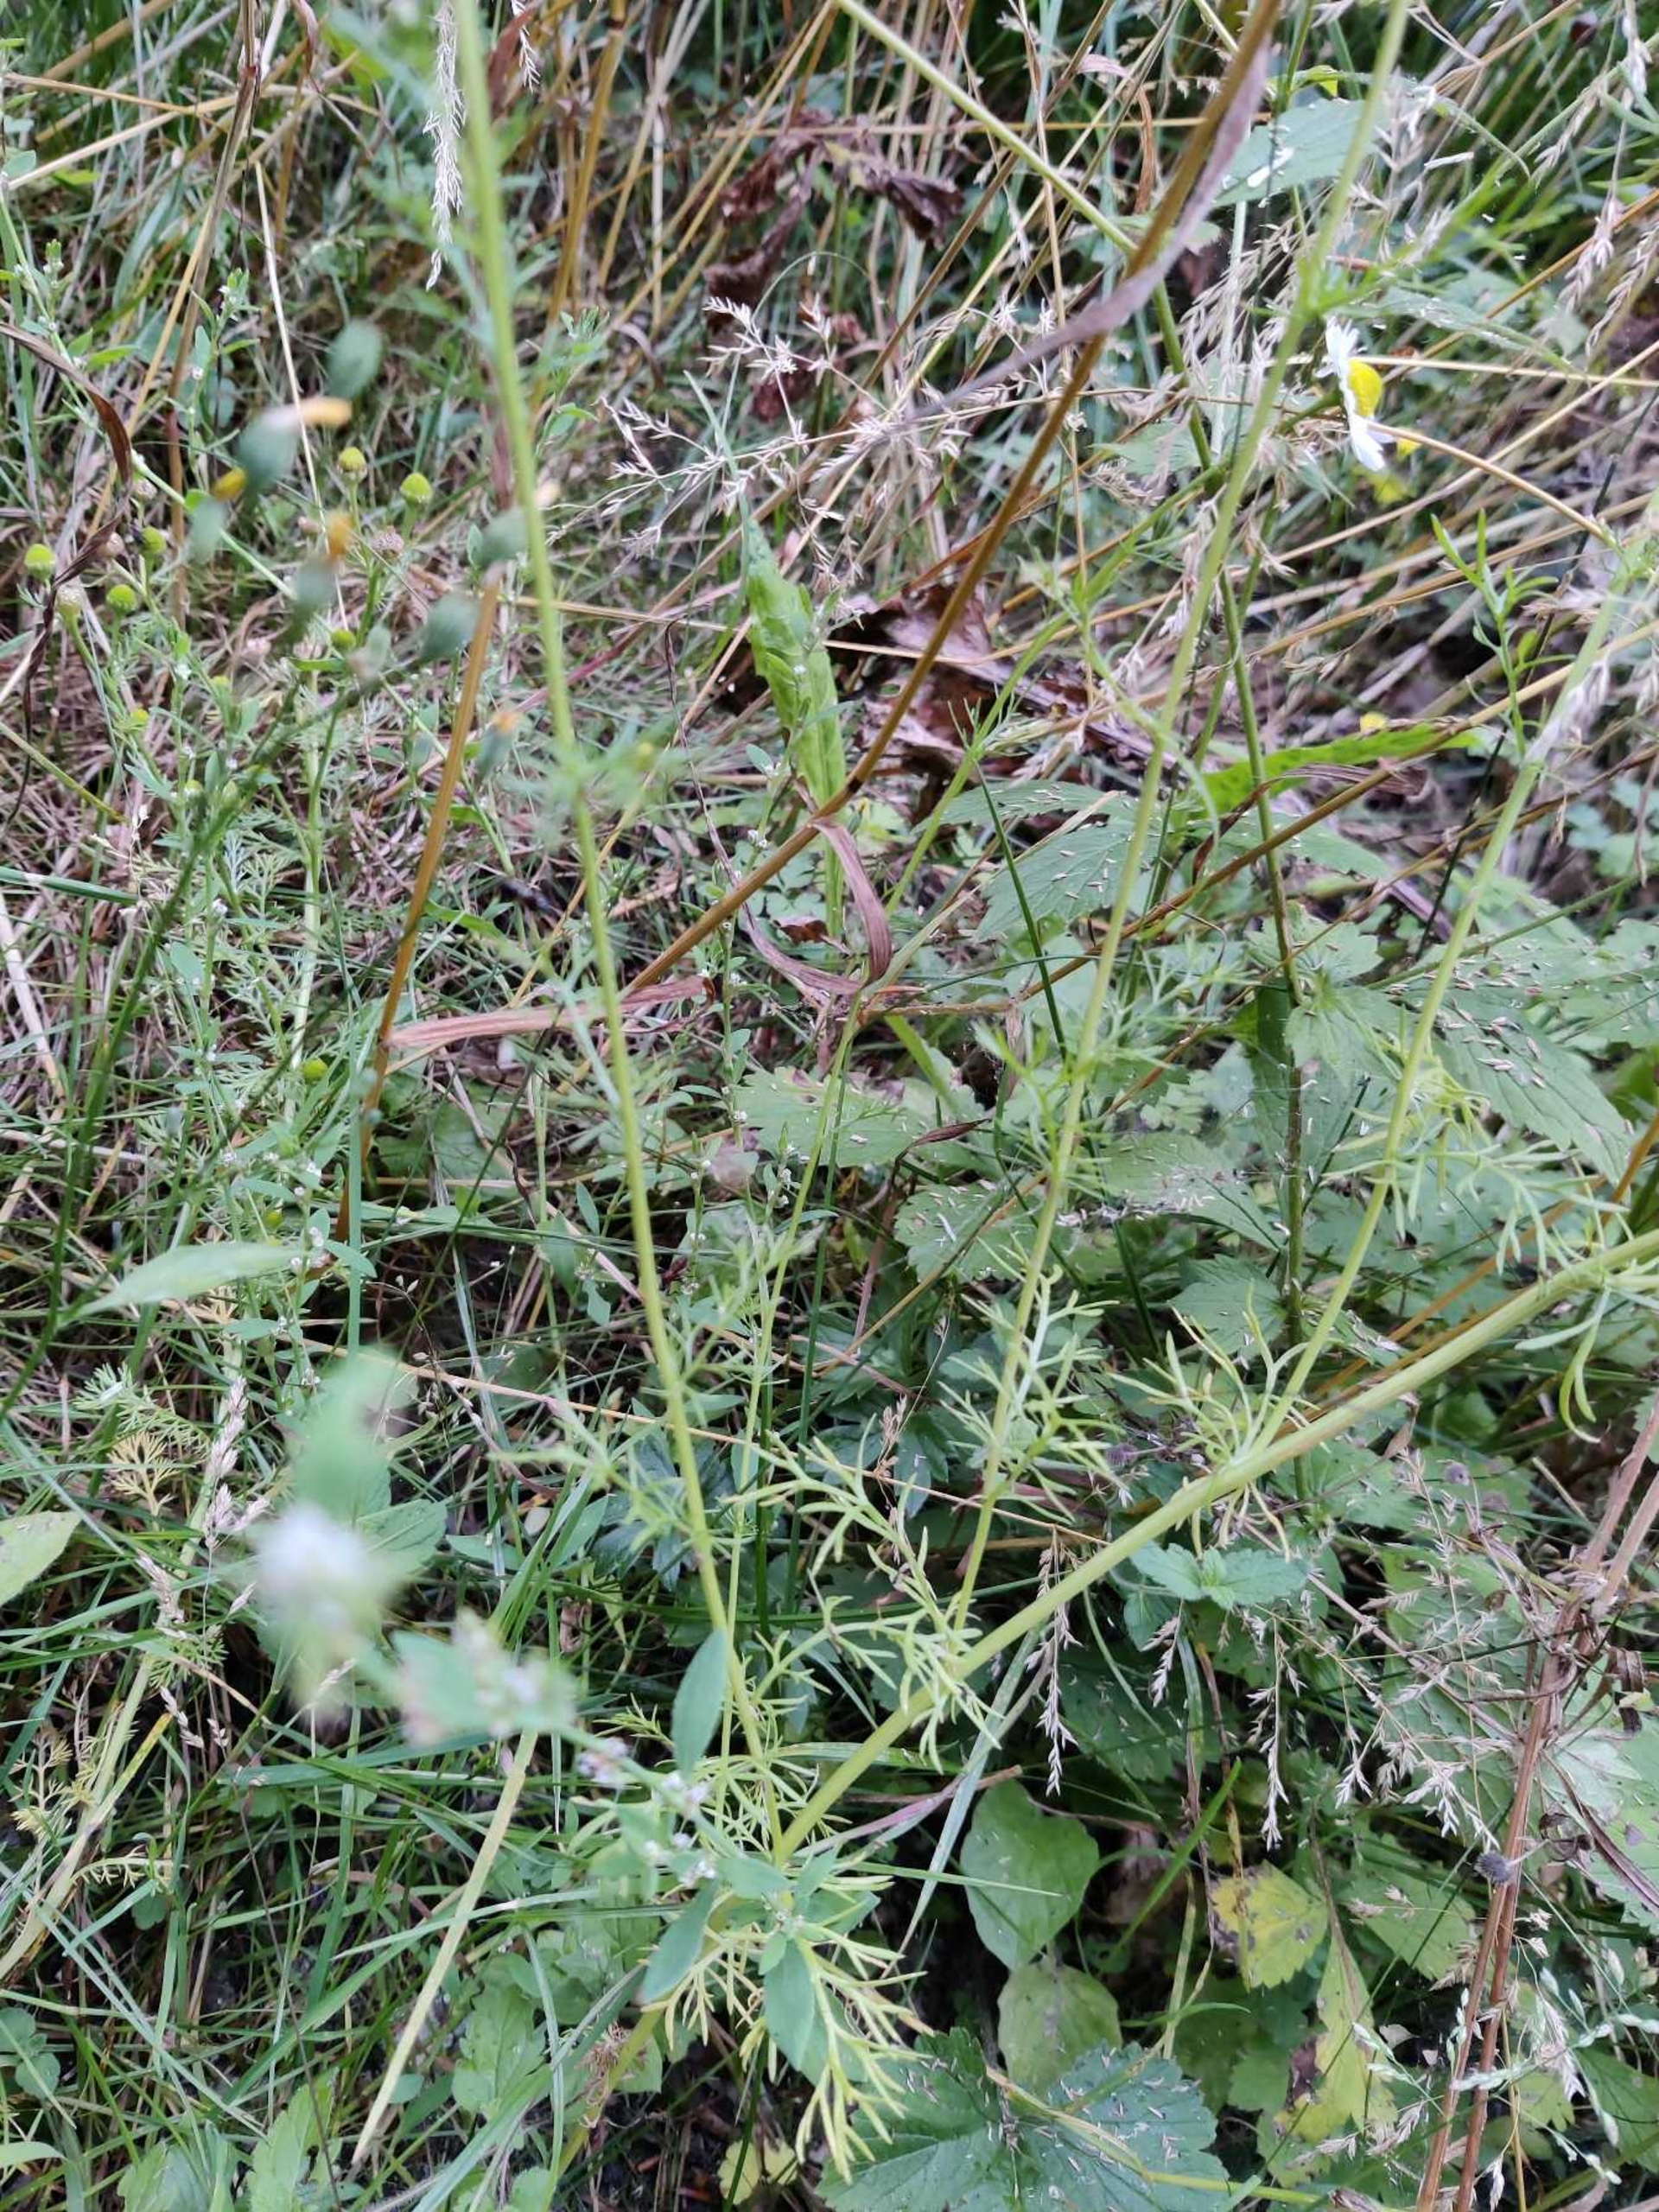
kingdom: Plantae
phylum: Tracheophyta
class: Magnoliopsida
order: Asterales
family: Asteraceae
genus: Matricaria
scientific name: Matricaria chamomilla
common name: Vellugtende kamille
